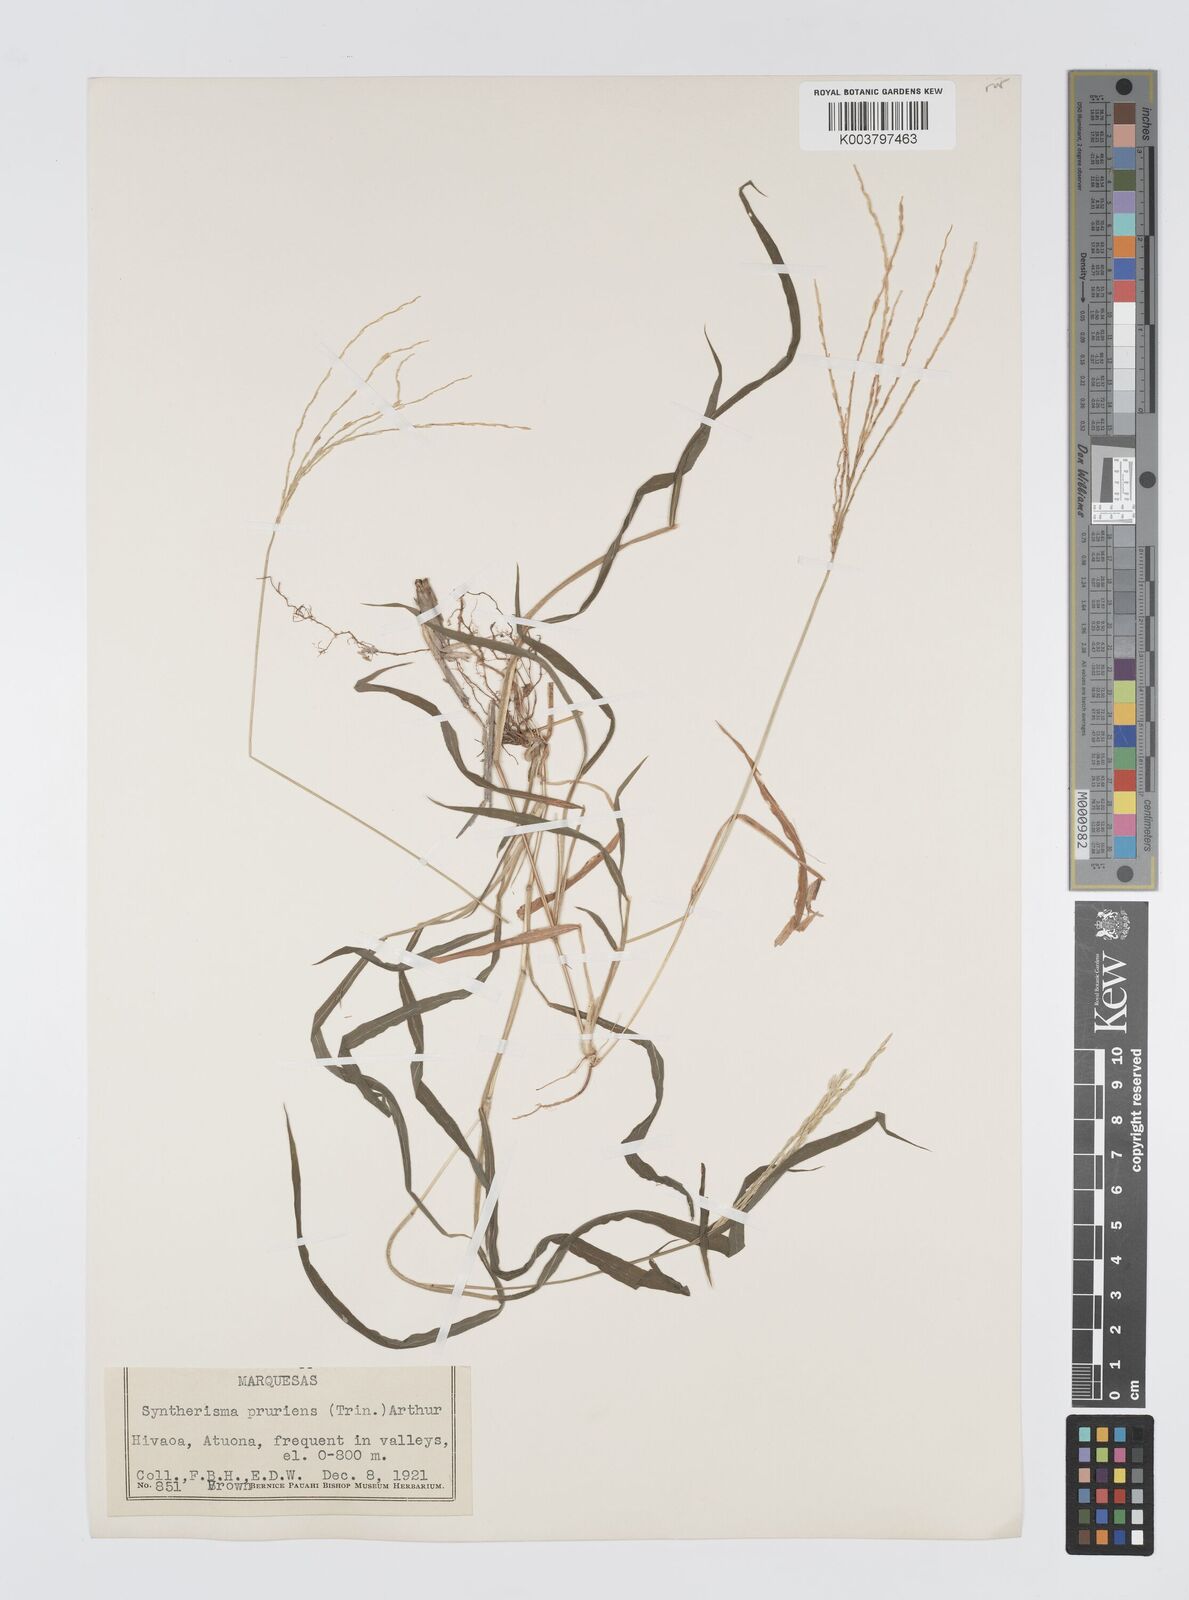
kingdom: Plantae
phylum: Tracheophyta
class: Liliopsida
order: Poales
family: Poaceae
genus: Digitaria
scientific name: Digitaria setigera
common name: East indian crabgrass
